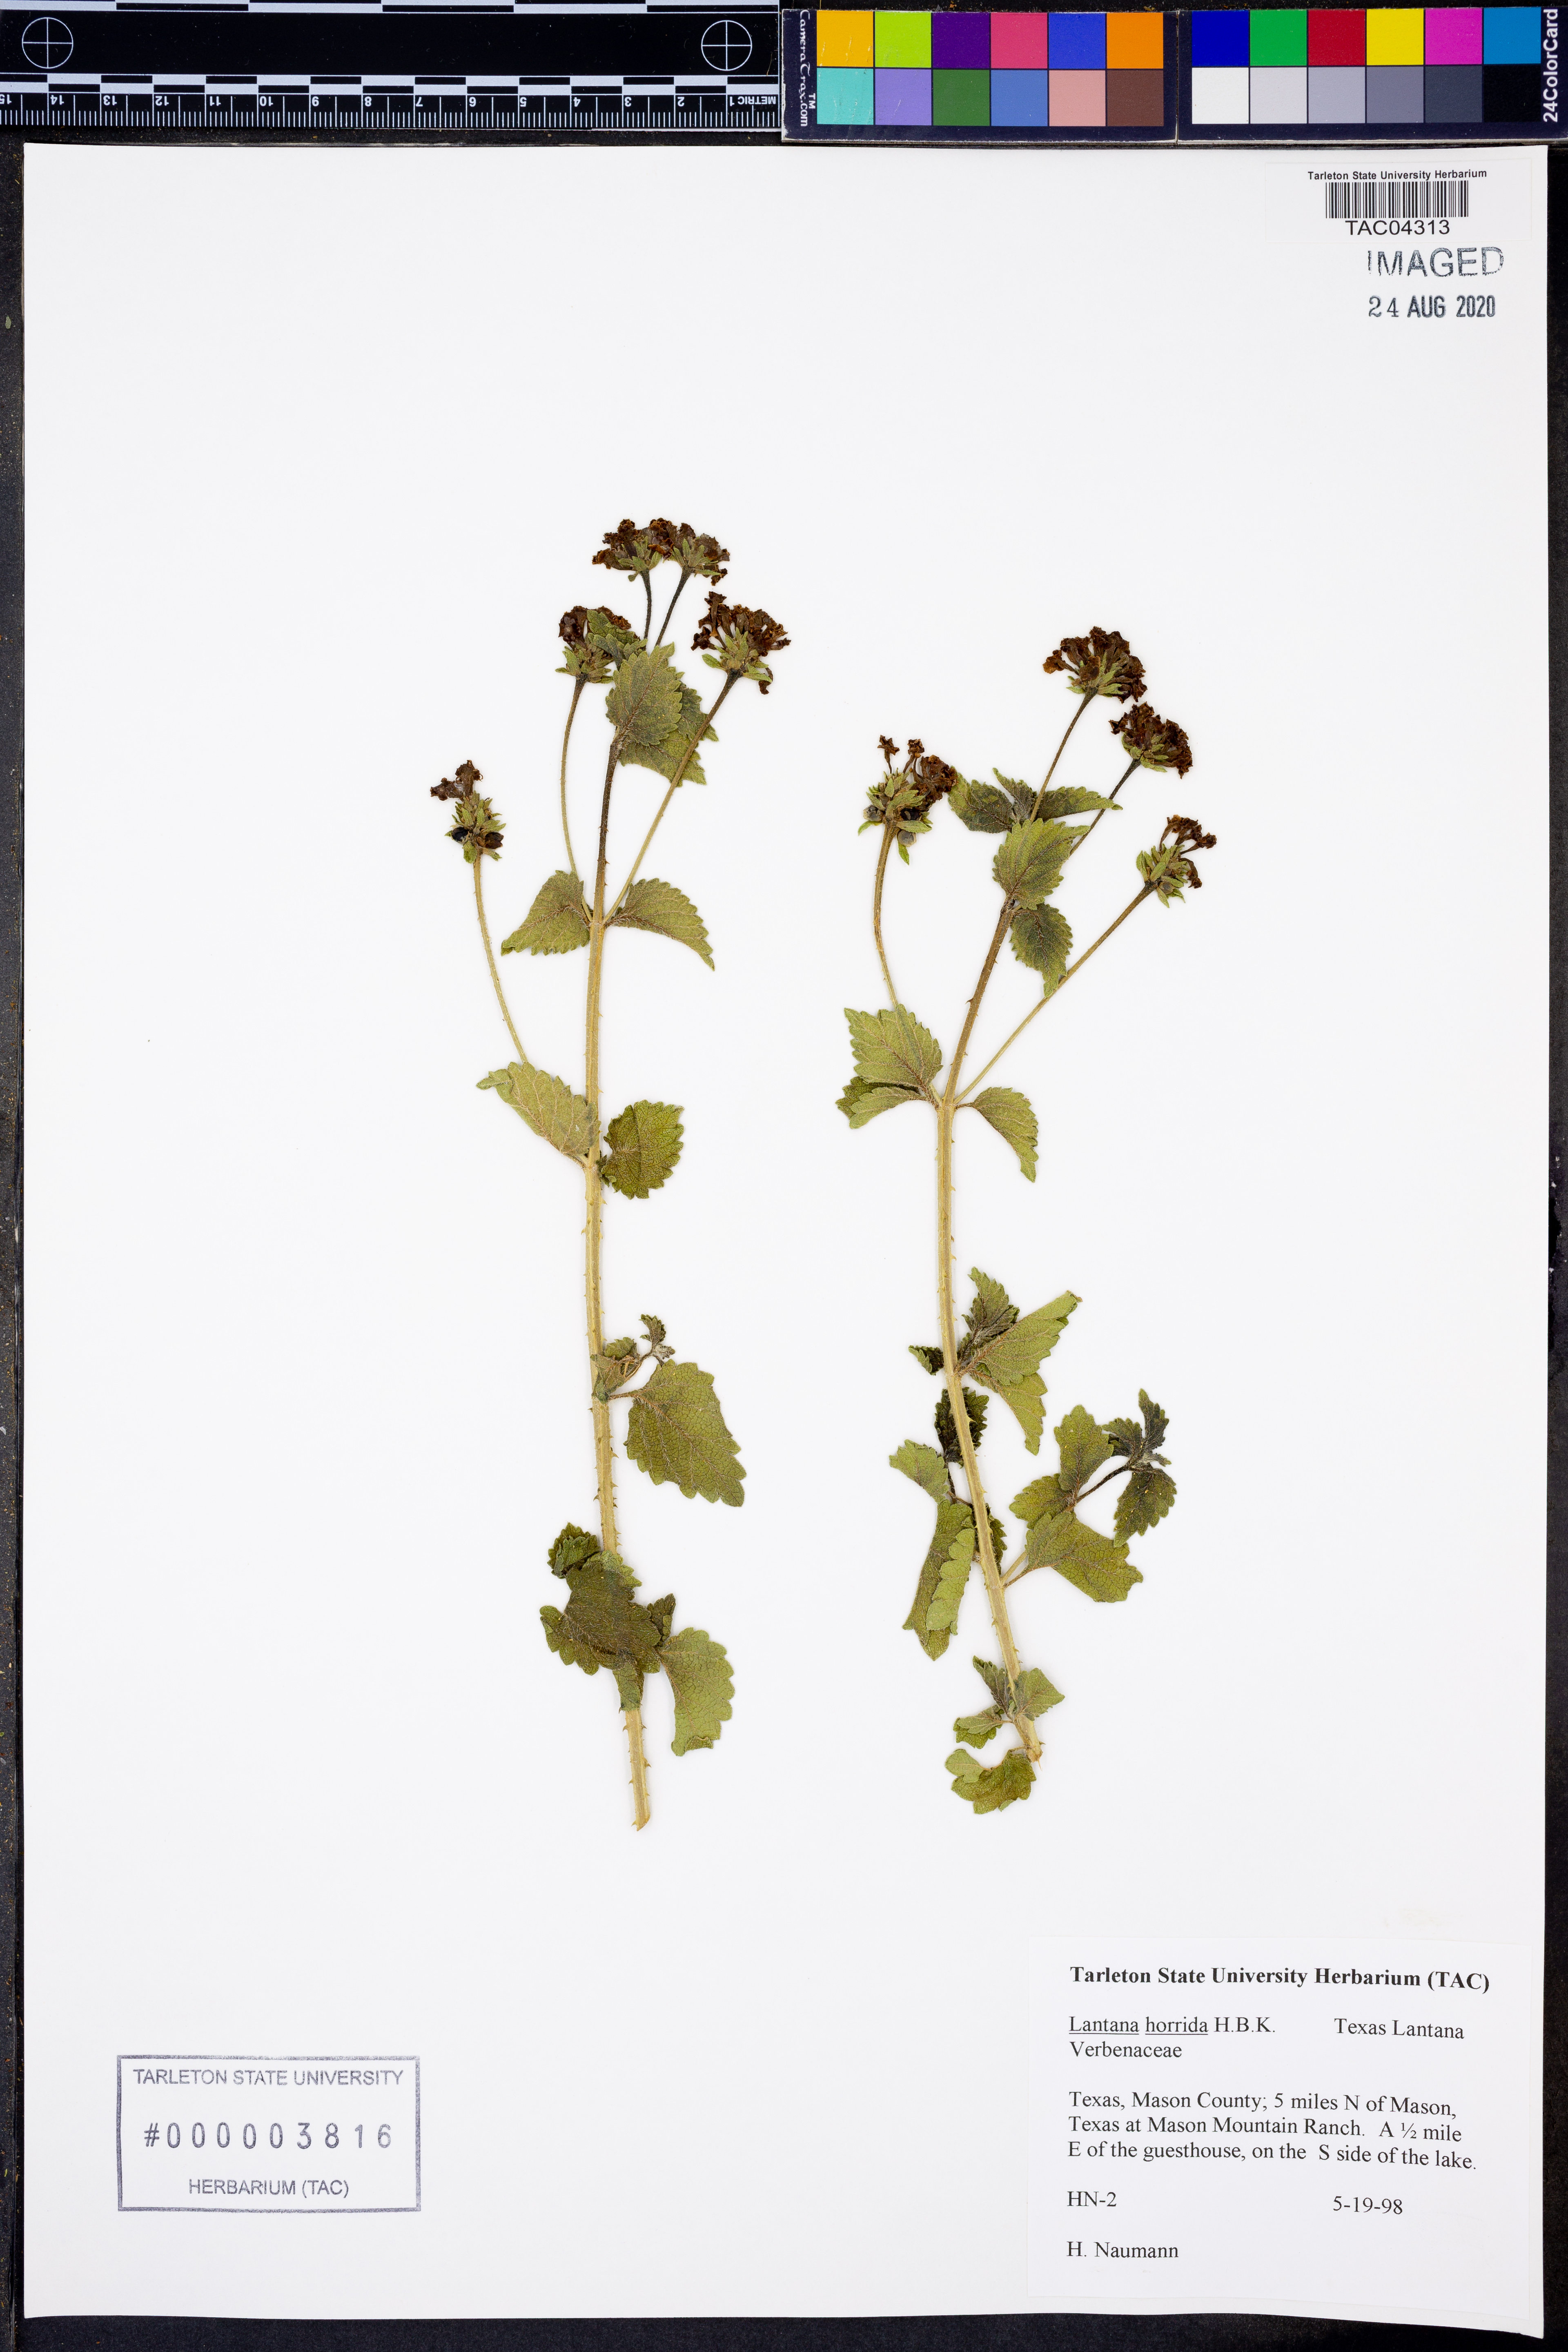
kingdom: Plantae
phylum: Tracheophyta
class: Magnoliopsida
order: Lamiales
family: Verbenaceae
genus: Lantana
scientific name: Lantana horrida
